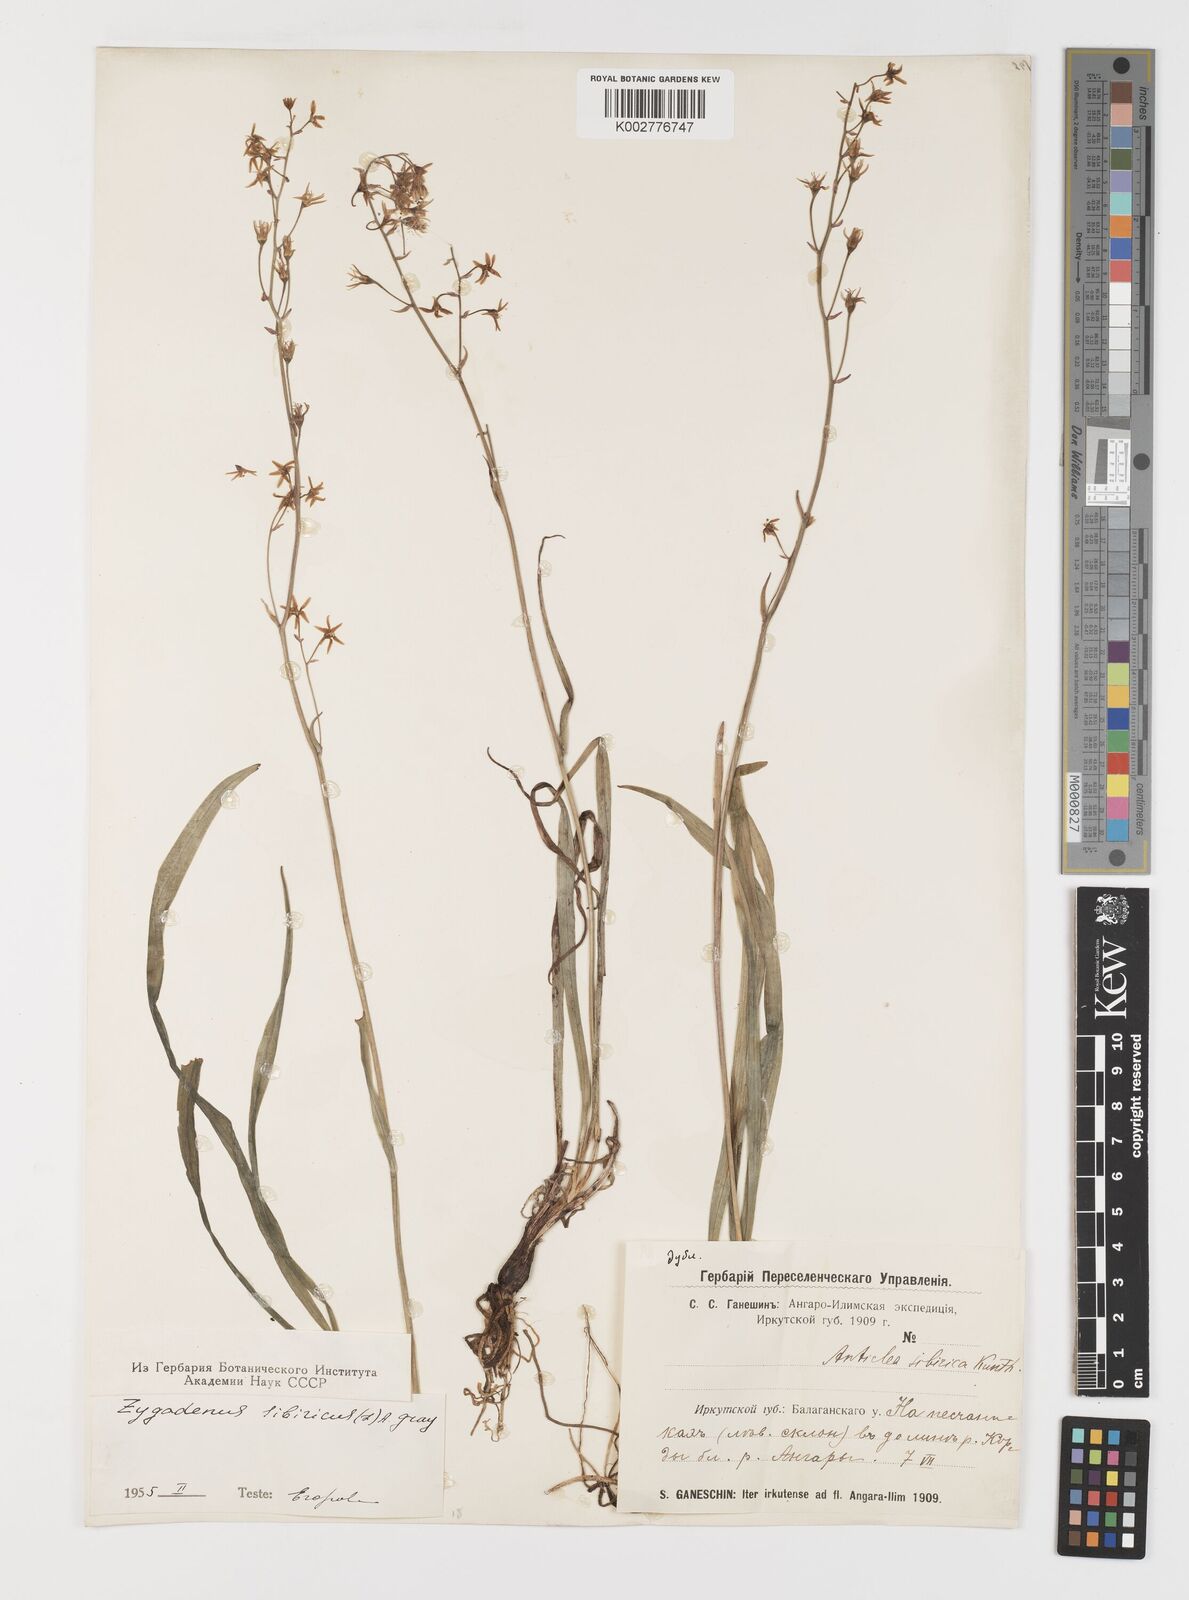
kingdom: Plantae
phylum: Tracheophyta
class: Liliopsida
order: Liliales
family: Melanthiaceae
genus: Anticlea
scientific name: Anticlea sibirica
